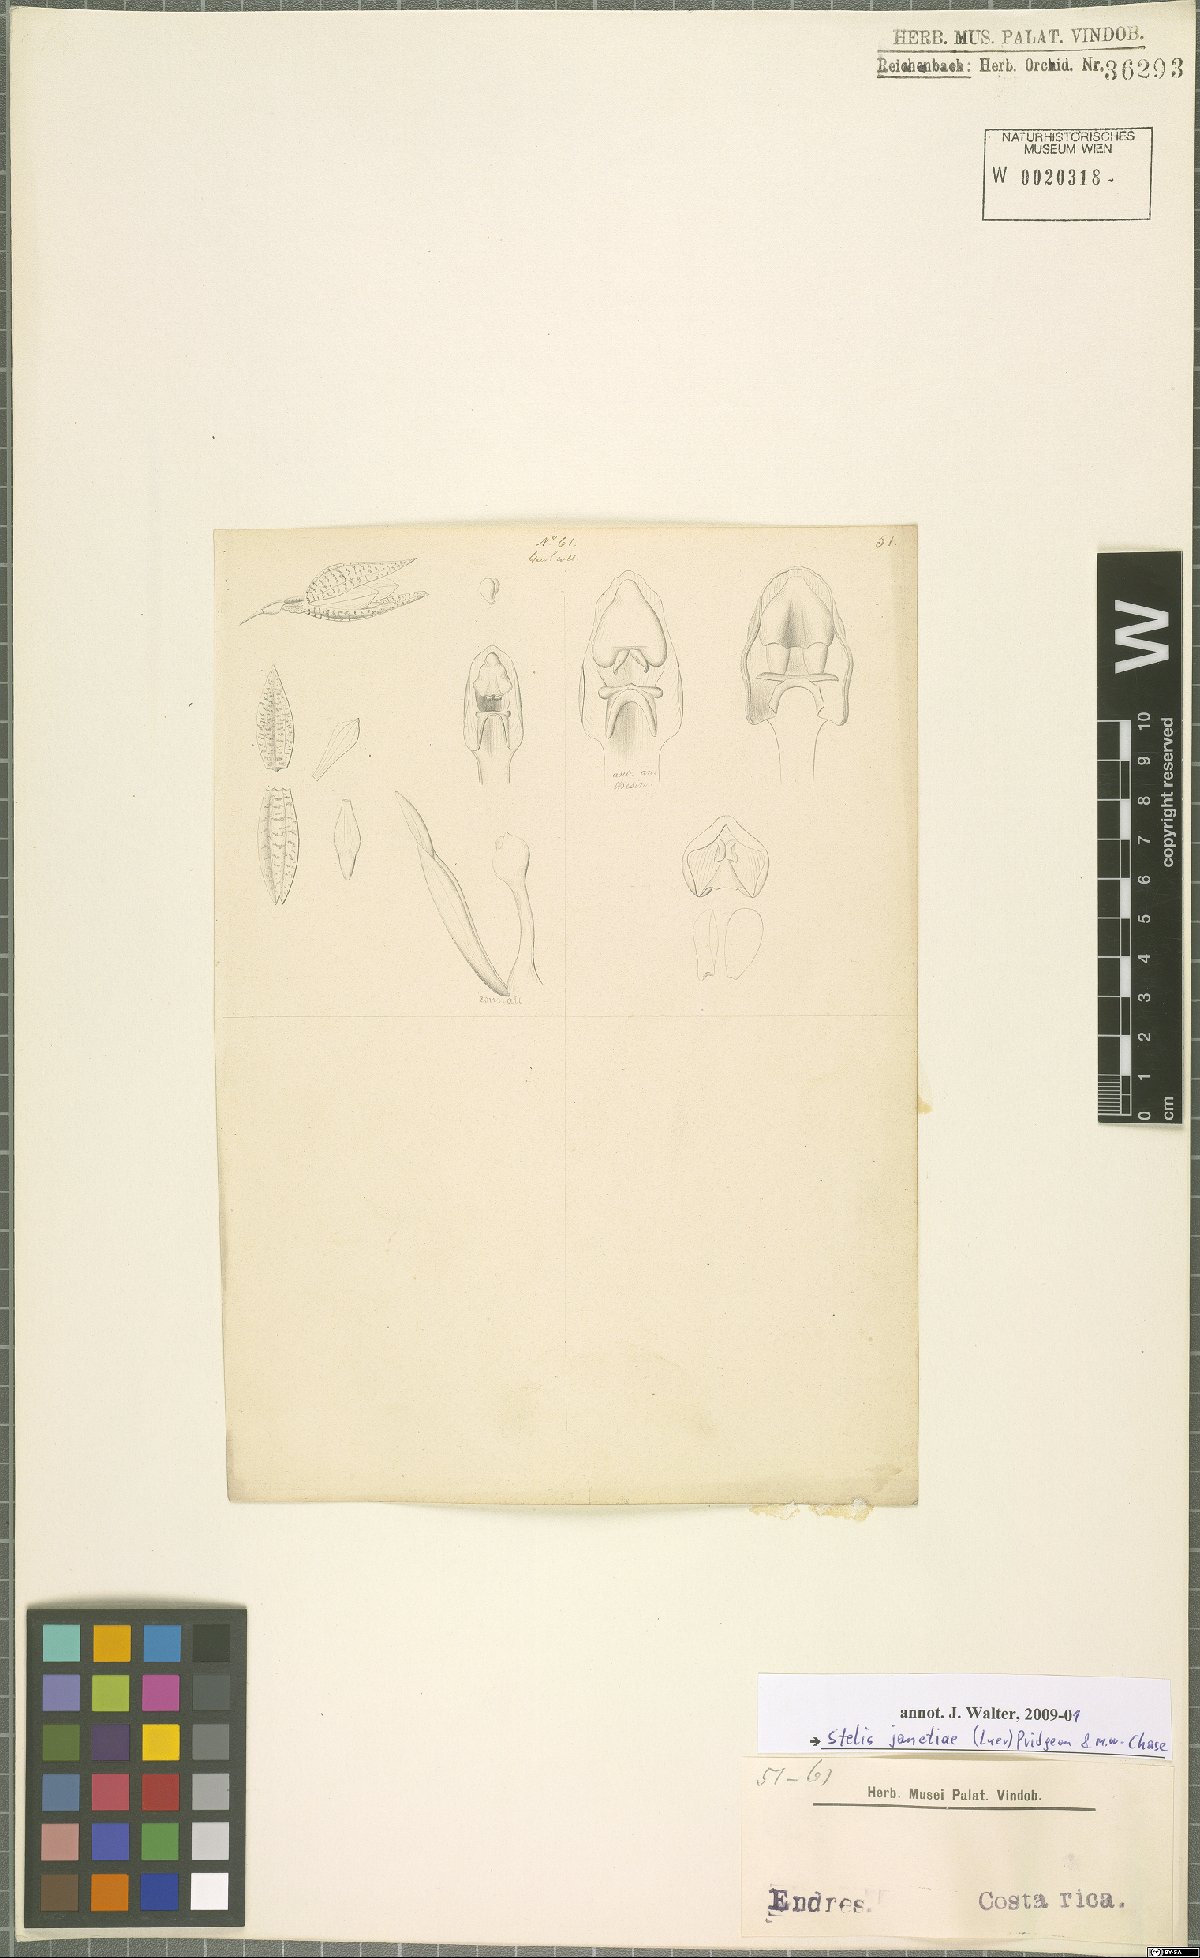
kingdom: Plantae
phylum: Tracheophyta
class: Liliopsida
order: Asparagales
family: Orchidaceae
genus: Stelis
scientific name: Stelis janetiae
